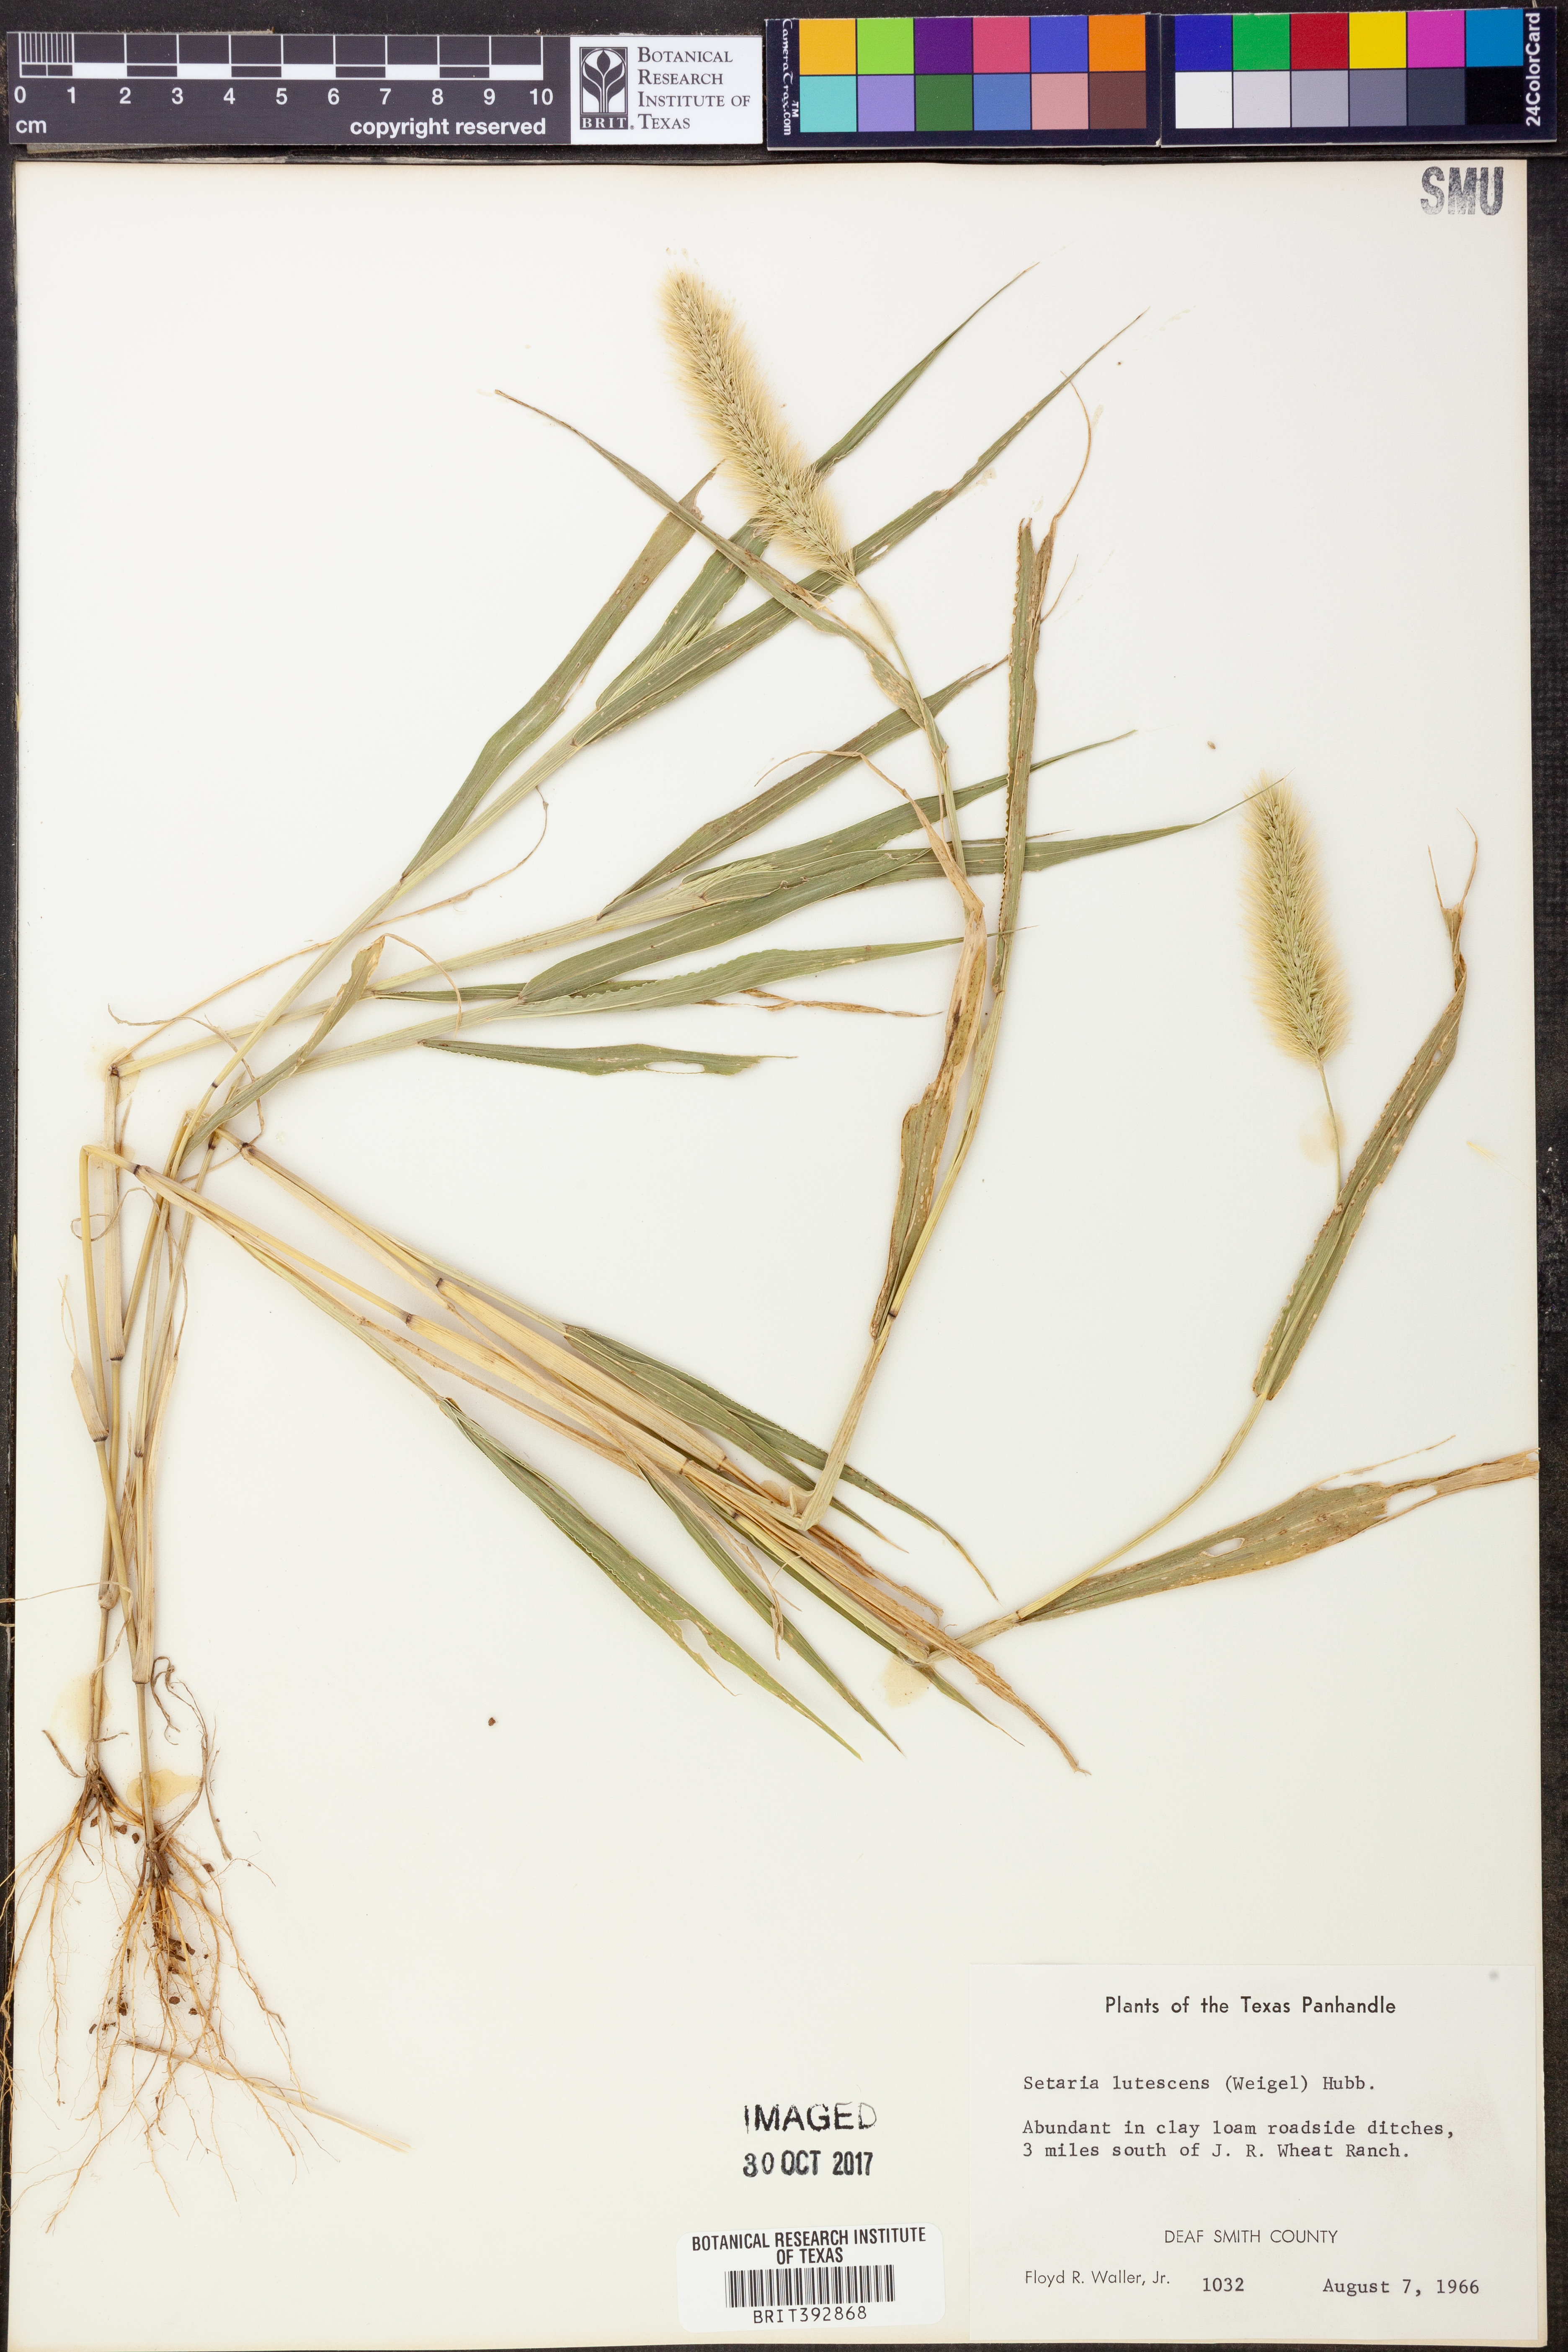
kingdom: Plantae
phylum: Tracheophyta
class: Liliopsida
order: Poales
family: Poaceae
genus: Cenchrus
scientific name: Cenchrus americanus
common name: Pearl millet
